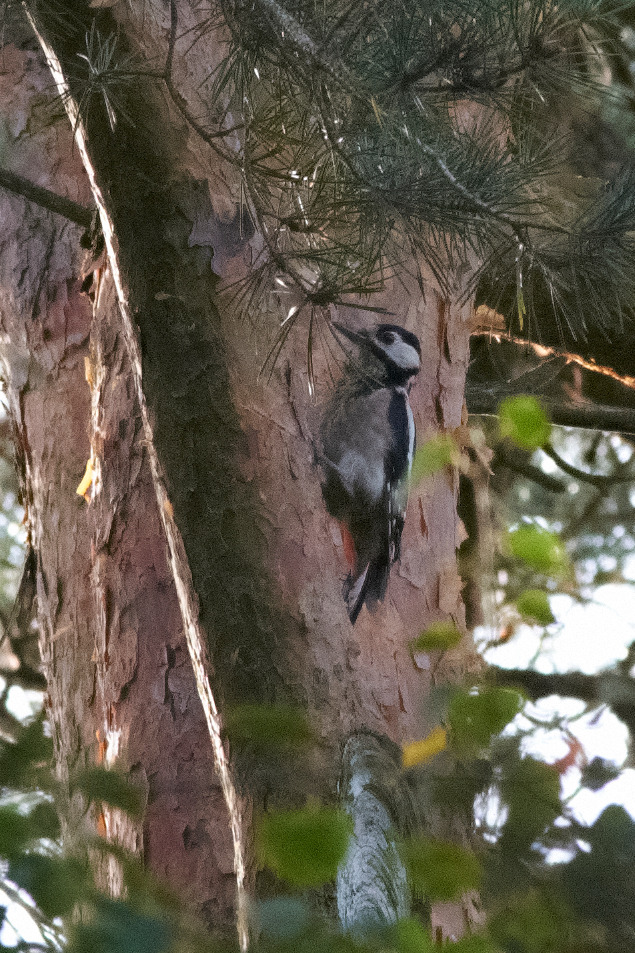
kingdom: Animalia
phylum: Chordata
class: Aves
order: Piciformes
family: Picidae
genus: Dendrocopos
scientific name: Dendrocopos major
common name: Stor flagspætte
